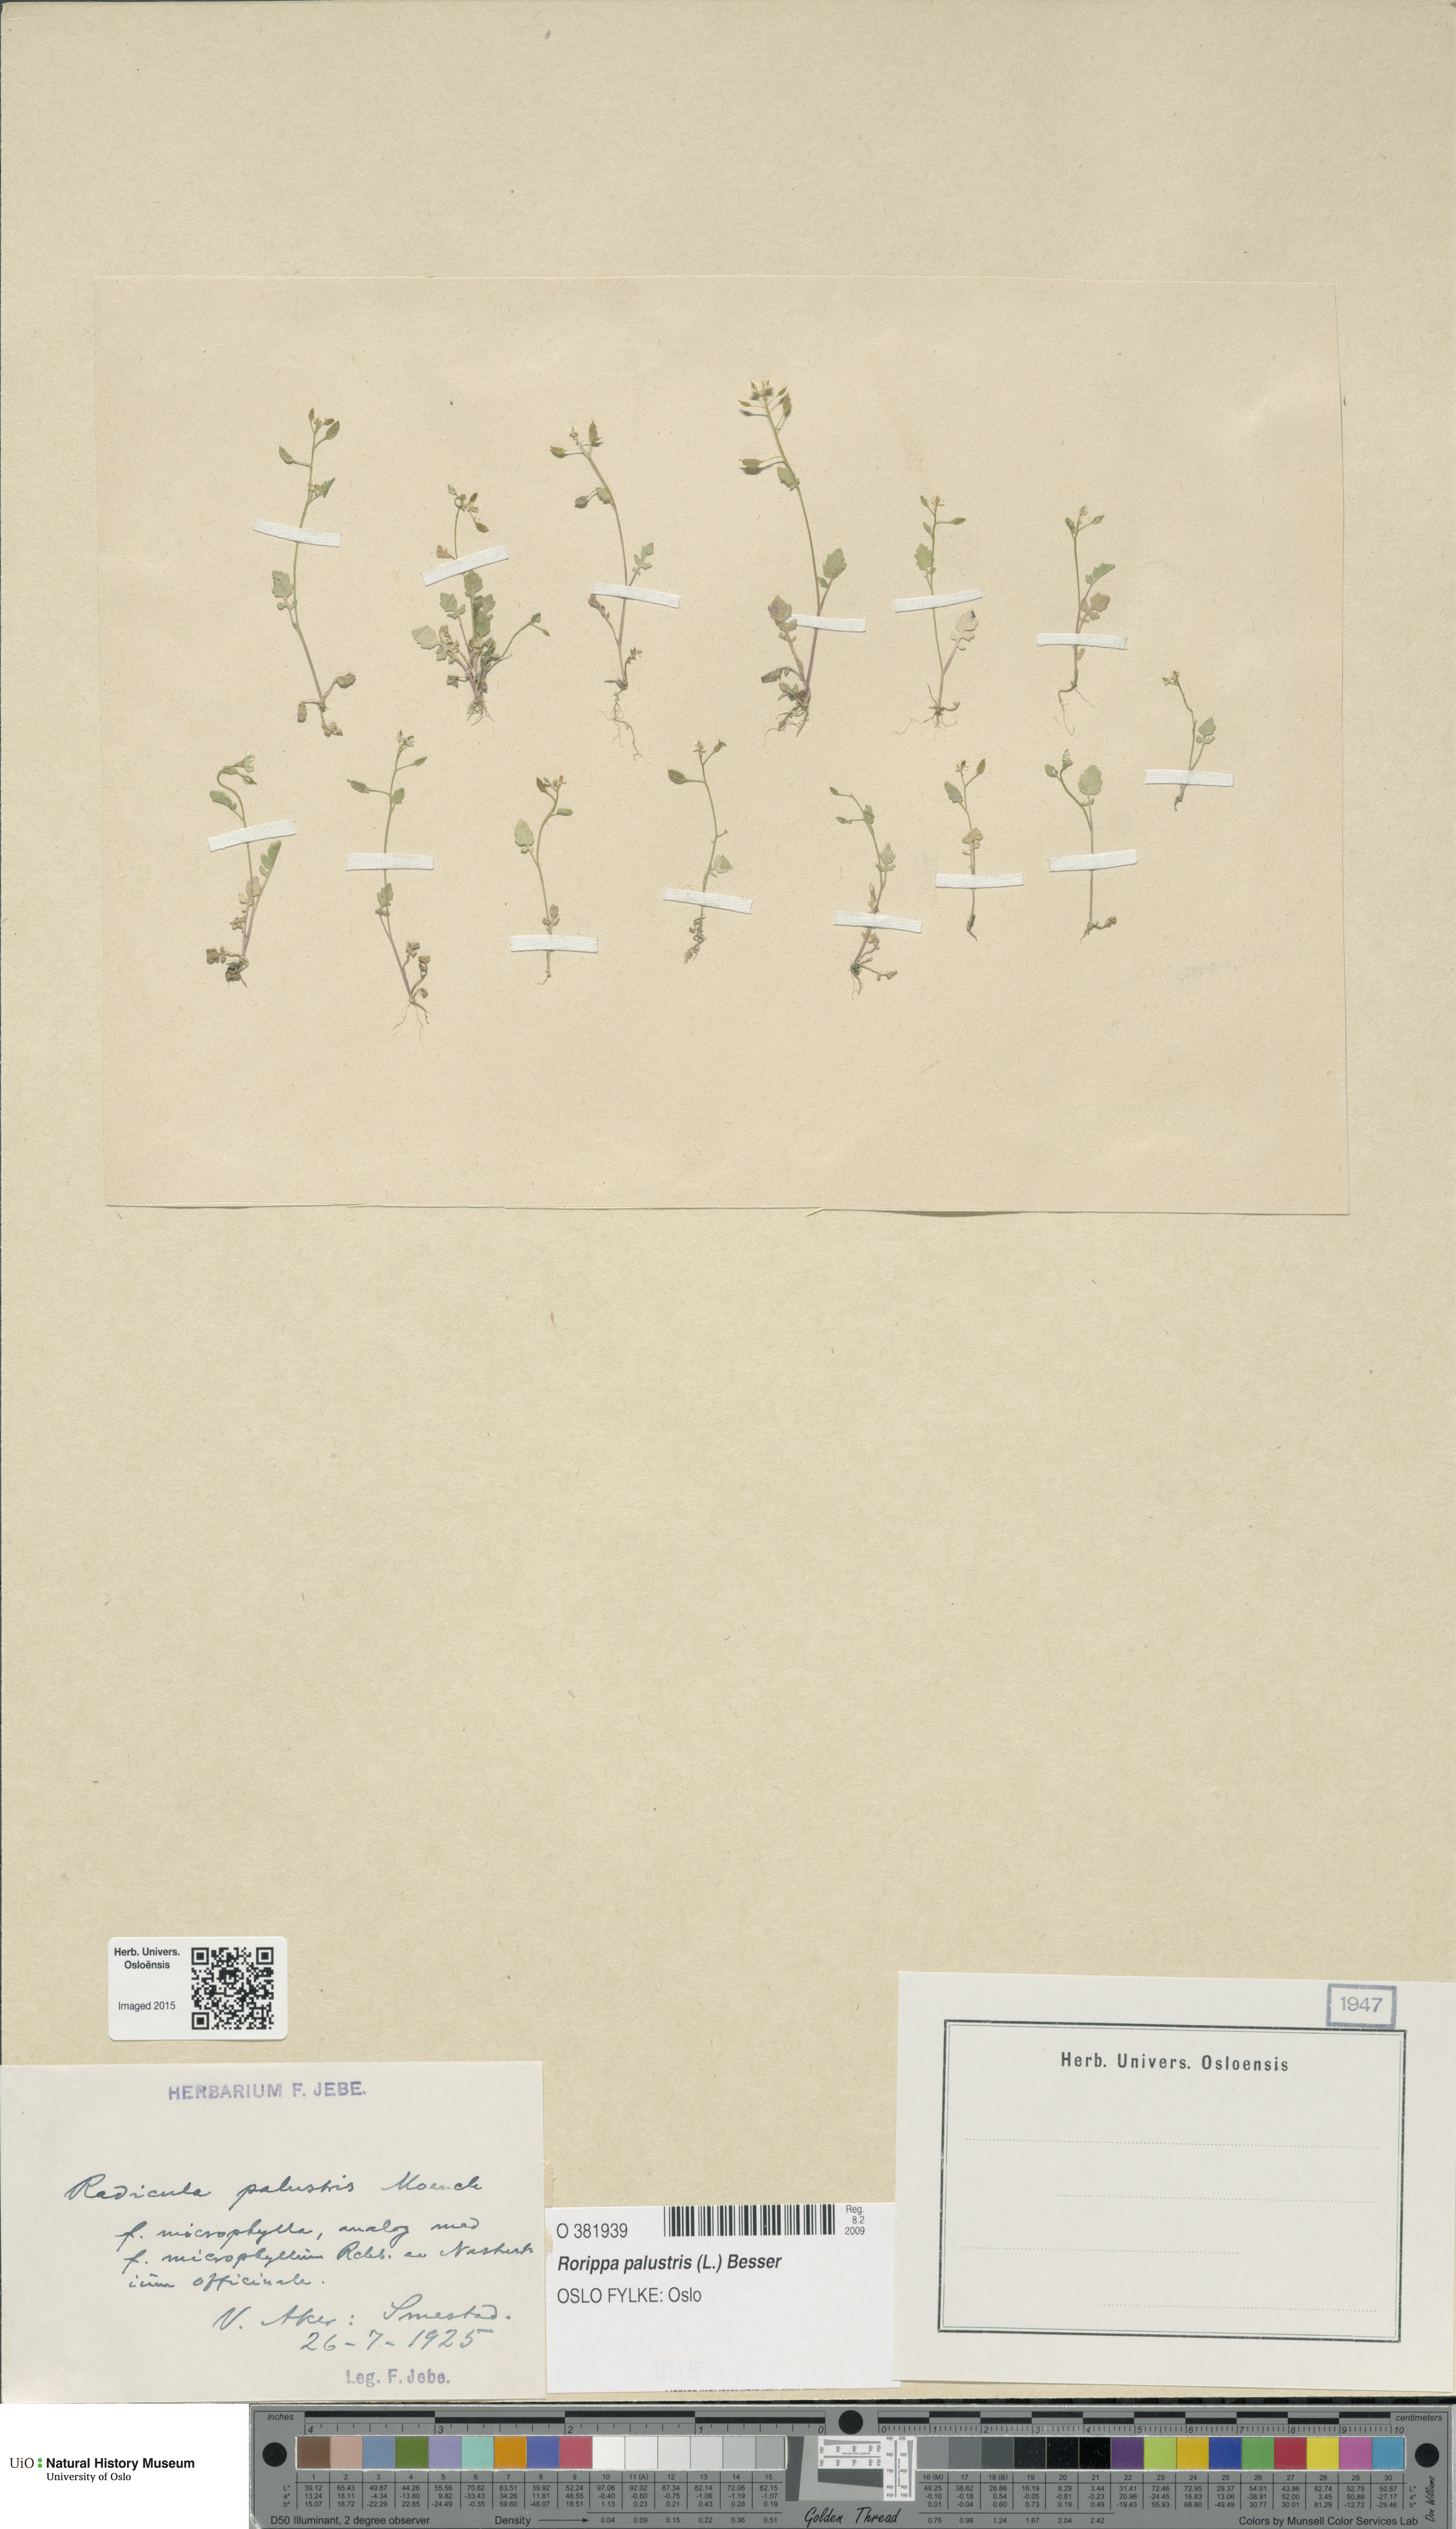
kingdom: Plantae
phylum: Tracheophyta
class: Magnoliopsida
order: Brassicales
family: Brassicaceae
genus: Rorippa
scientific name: Rorippa palustris
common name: Marsh yellow-cress
